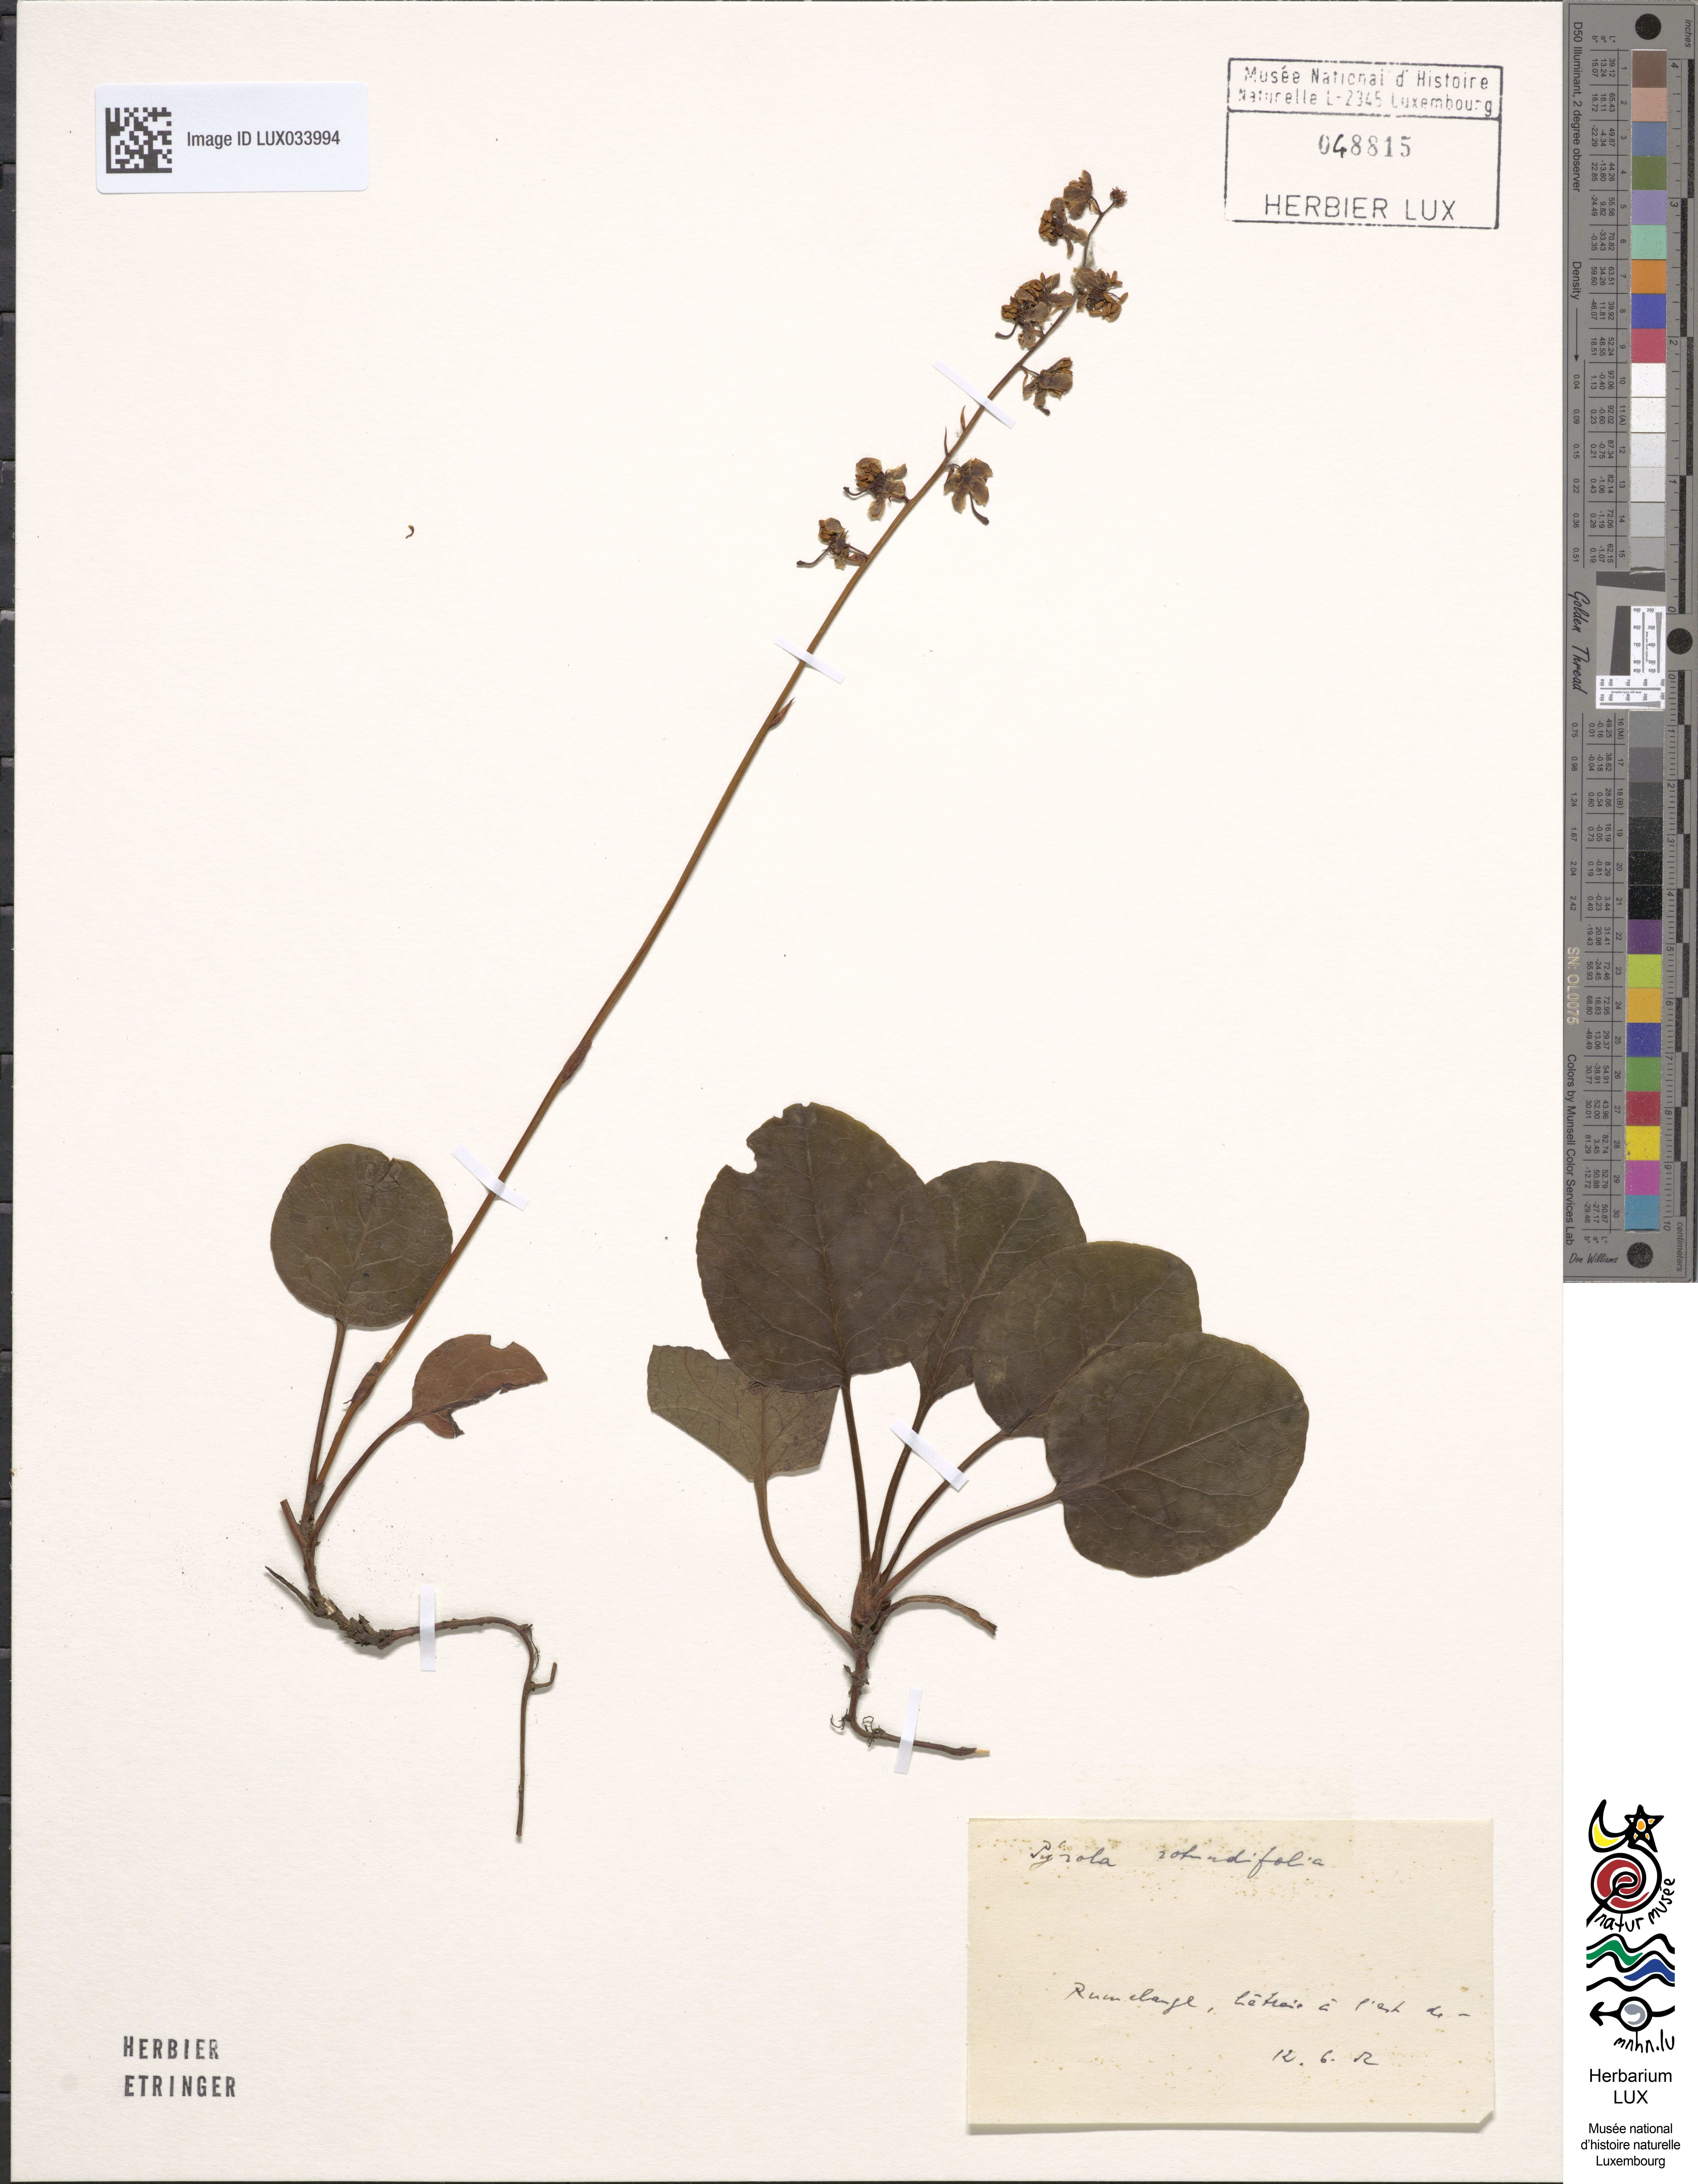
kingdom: Plantae
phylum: Tracheophyta
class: Magnoliopsida
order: Ericales
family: Ericaceae
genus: Pyrola
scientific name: Pyrola rotundifolia
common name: Round-leaved wintergreen
